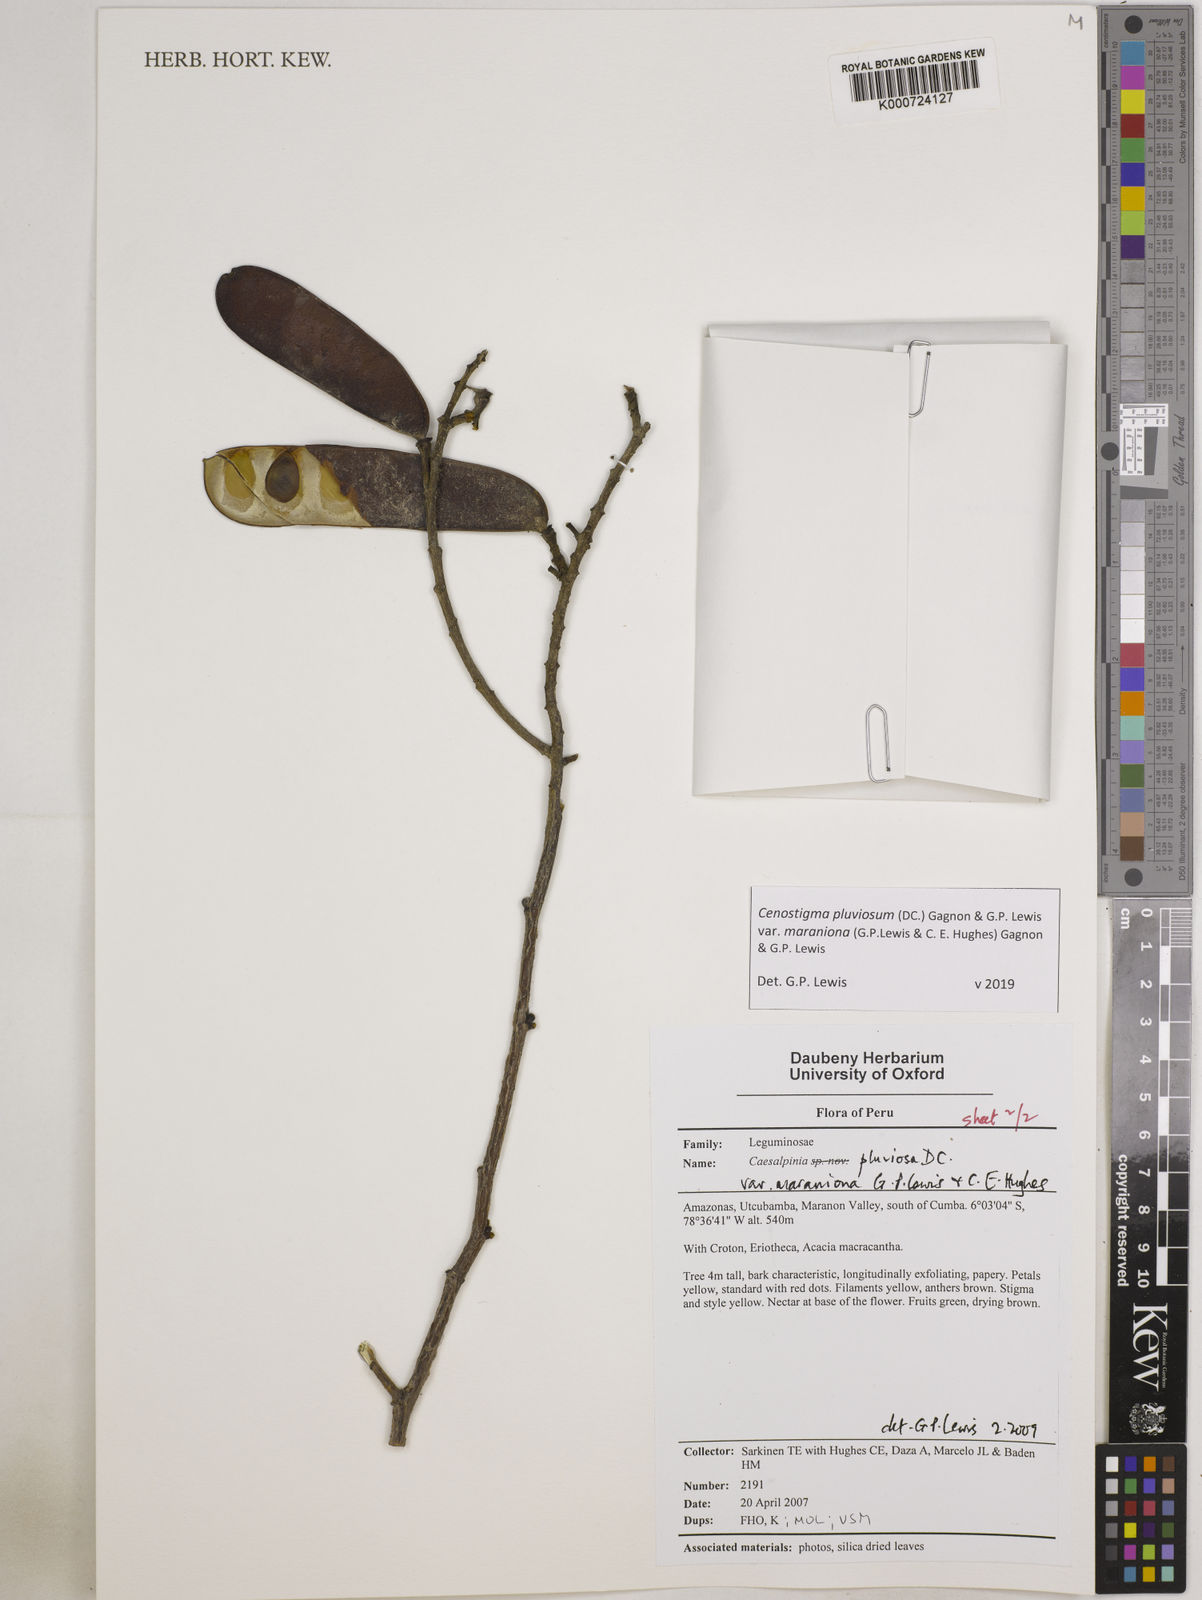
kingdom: Plantae
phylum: Tracheophyta
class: Magnoliopsida
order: Fabales
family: Fabaceae
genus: Cenostigma
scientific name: Cenostigma pluviosum
